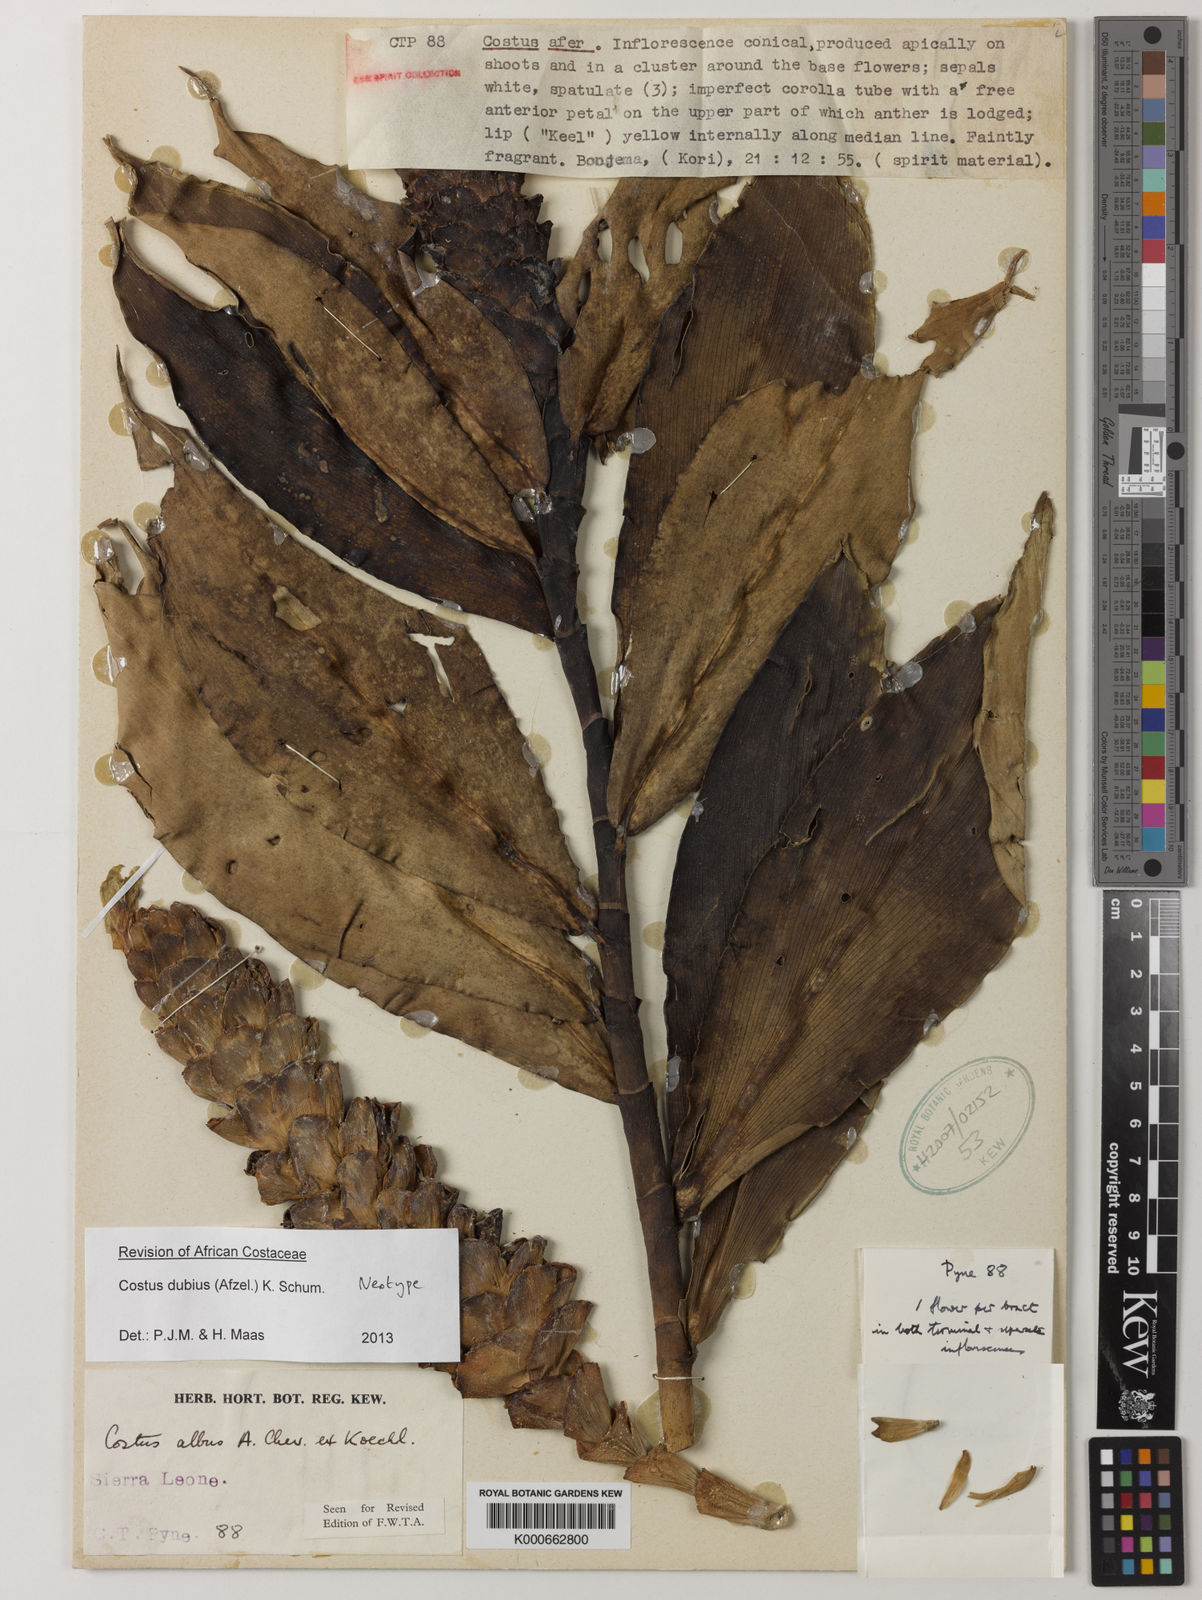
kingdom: Plantae
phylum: Tracheophyta
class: Liliopsida
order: Zingiberales
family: Costaceae
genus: Costus
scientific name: Costus dubius
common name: Costus
